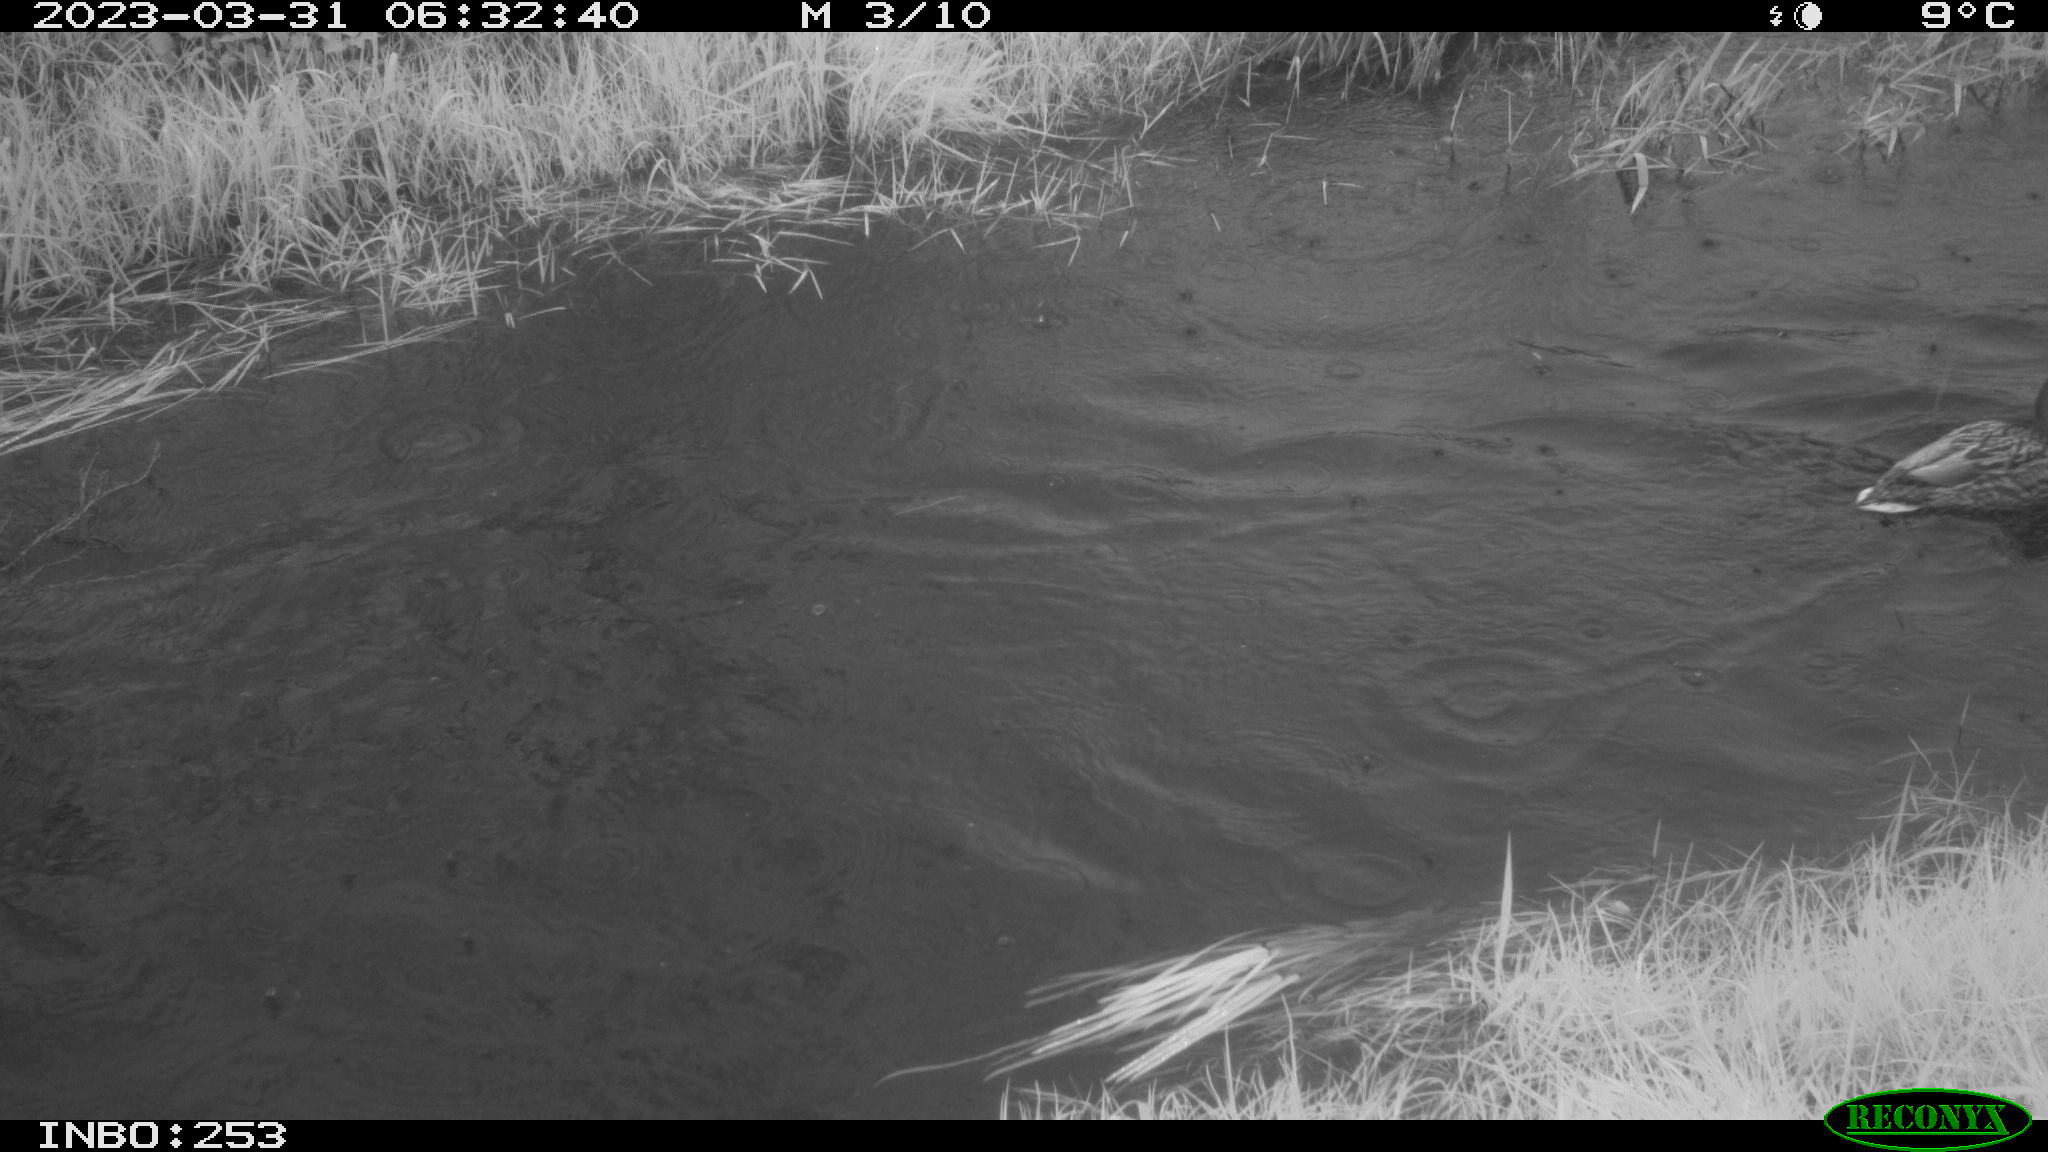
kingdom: Animalia
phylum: Chordata
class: Aves
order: Anseriformes
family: Anatidae
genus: Anas
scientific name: Anas
